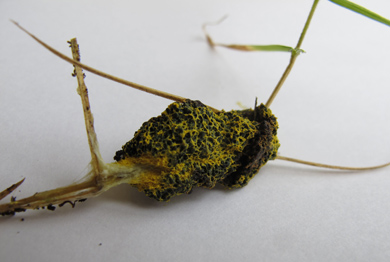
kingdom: Protozoa
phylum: Mycetozoa
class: Myxomycetes
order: Physarales
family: Physaraceae
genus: Fuligo
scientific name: Fuligo septica
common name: gul troldsmør
